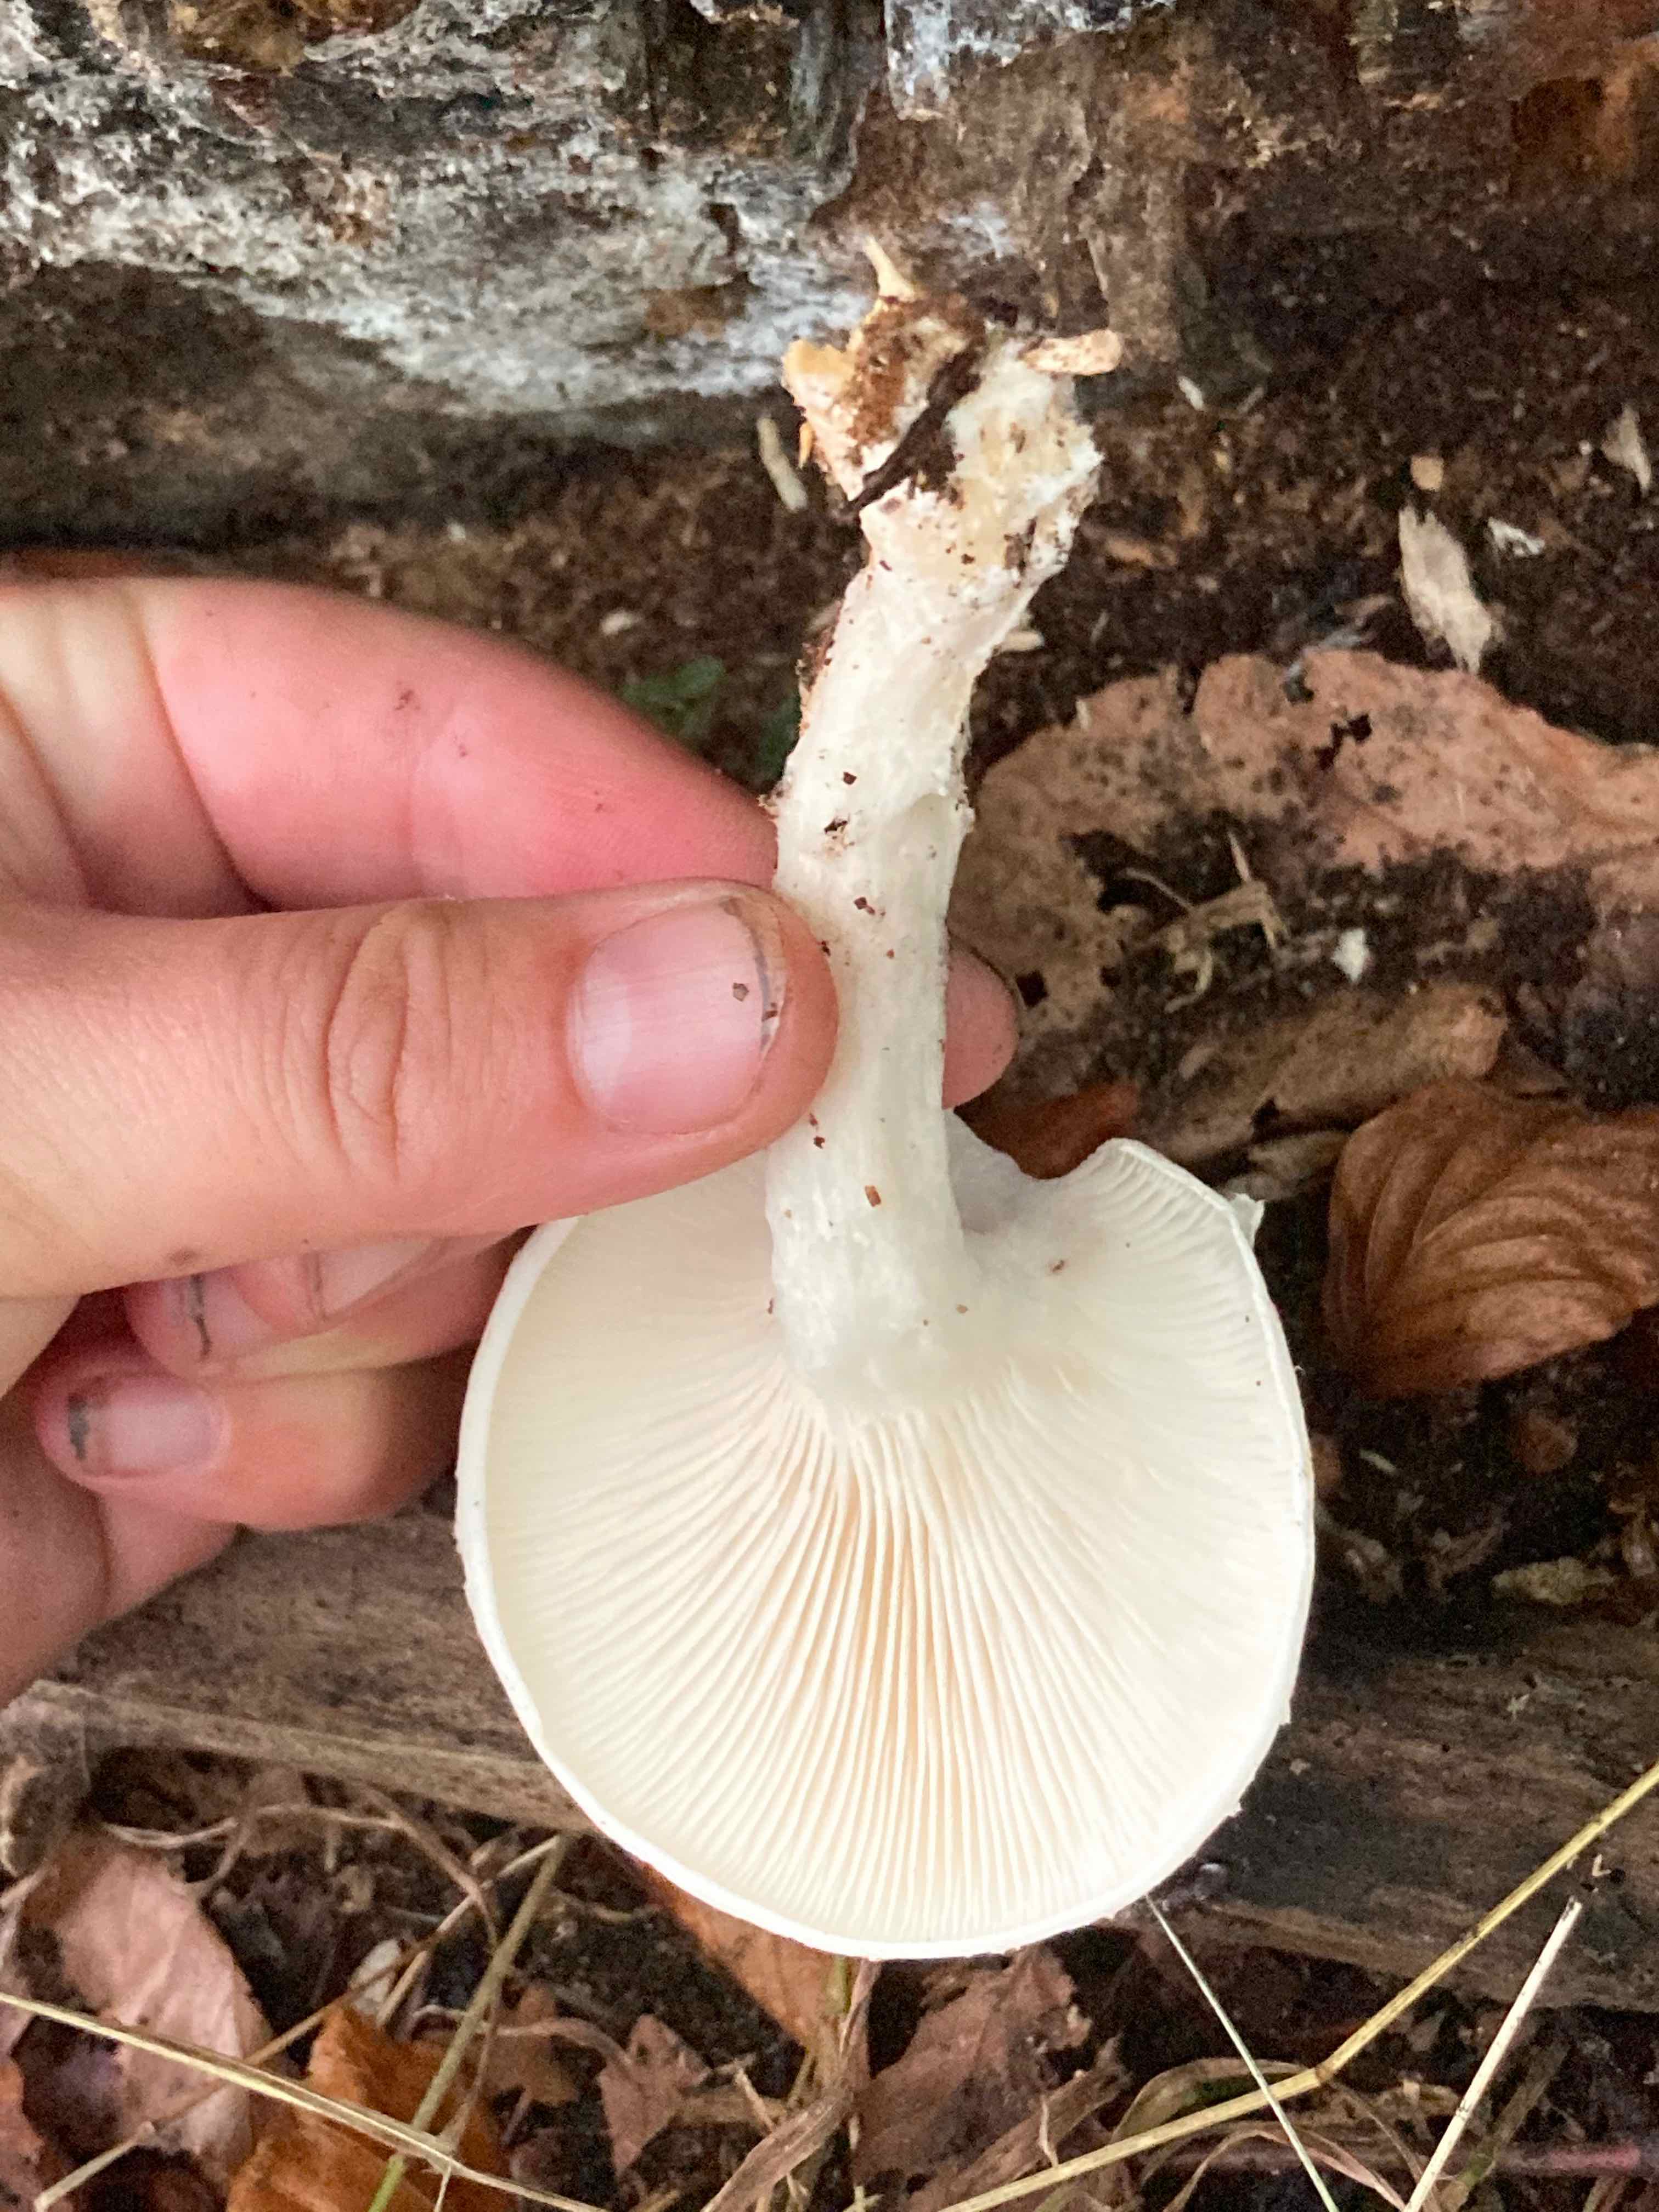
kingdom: Fungi
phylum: Basidiomycota
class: Agaricomycetes
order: Agaricales
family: Pleurotaceae
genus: Pleurotus
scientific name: Pleurotus dryinus
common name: korkagtig østershat
